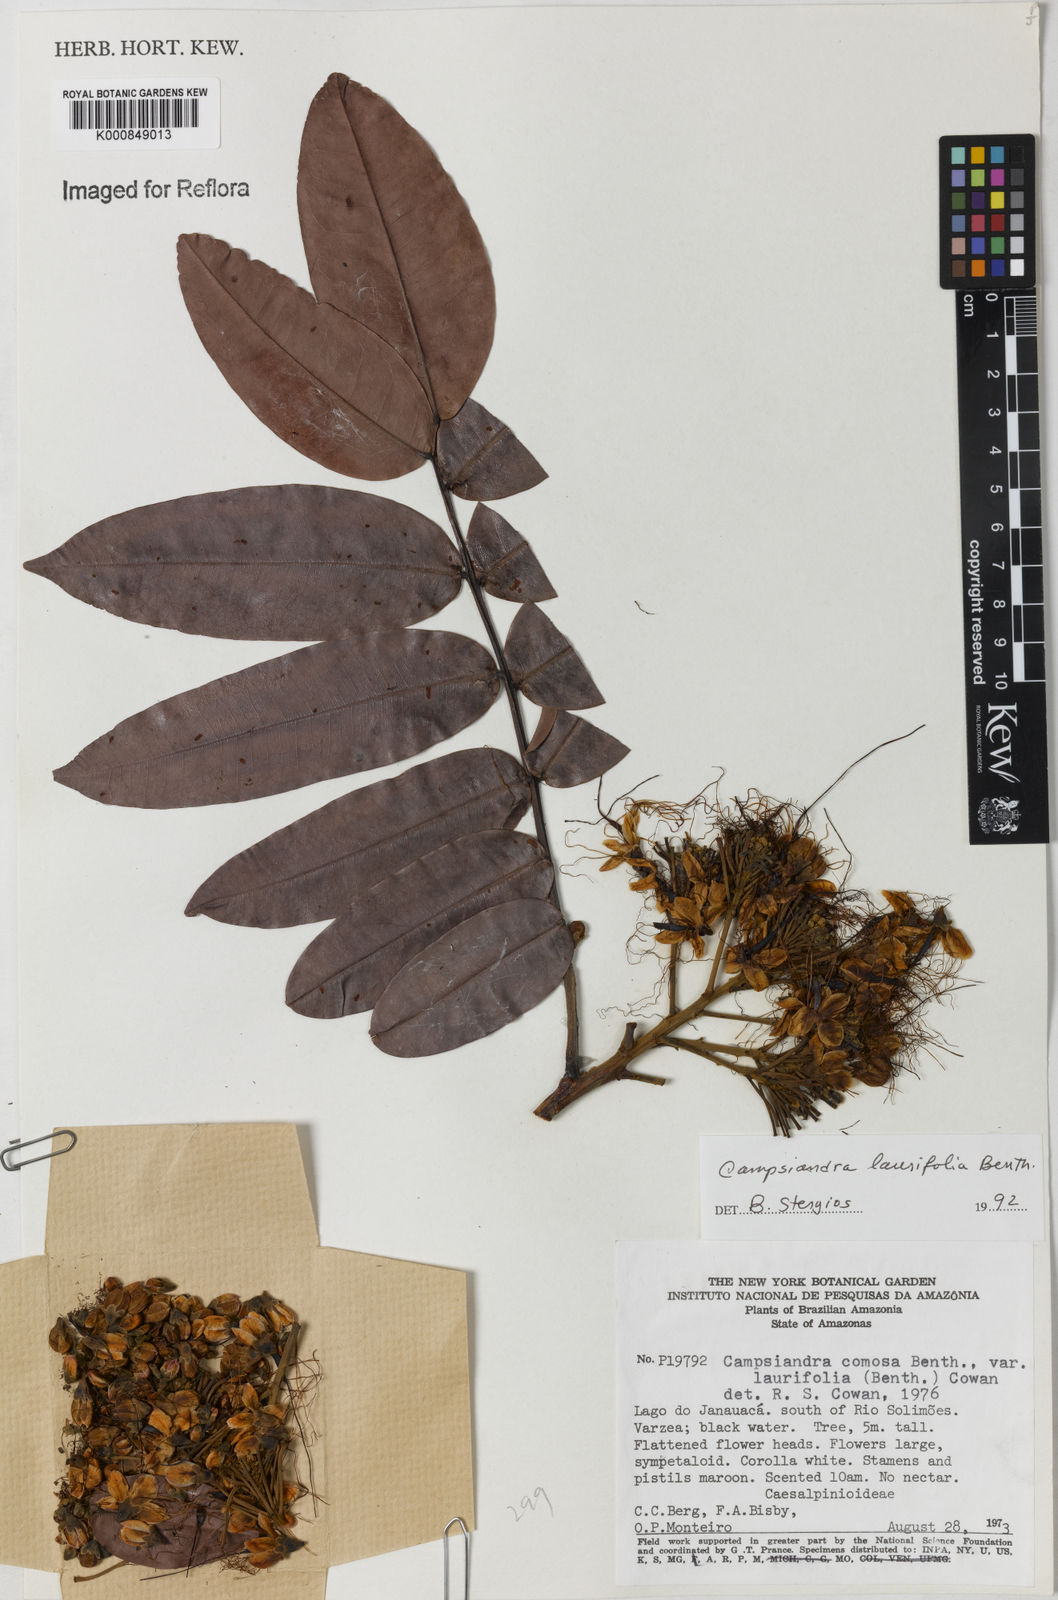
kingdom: Plantae
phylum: Tracheophyta
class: Magnoliopsida
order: Fabales
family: Fabaceae
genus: Campsiandra
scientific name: Campsiandra laurifolia
